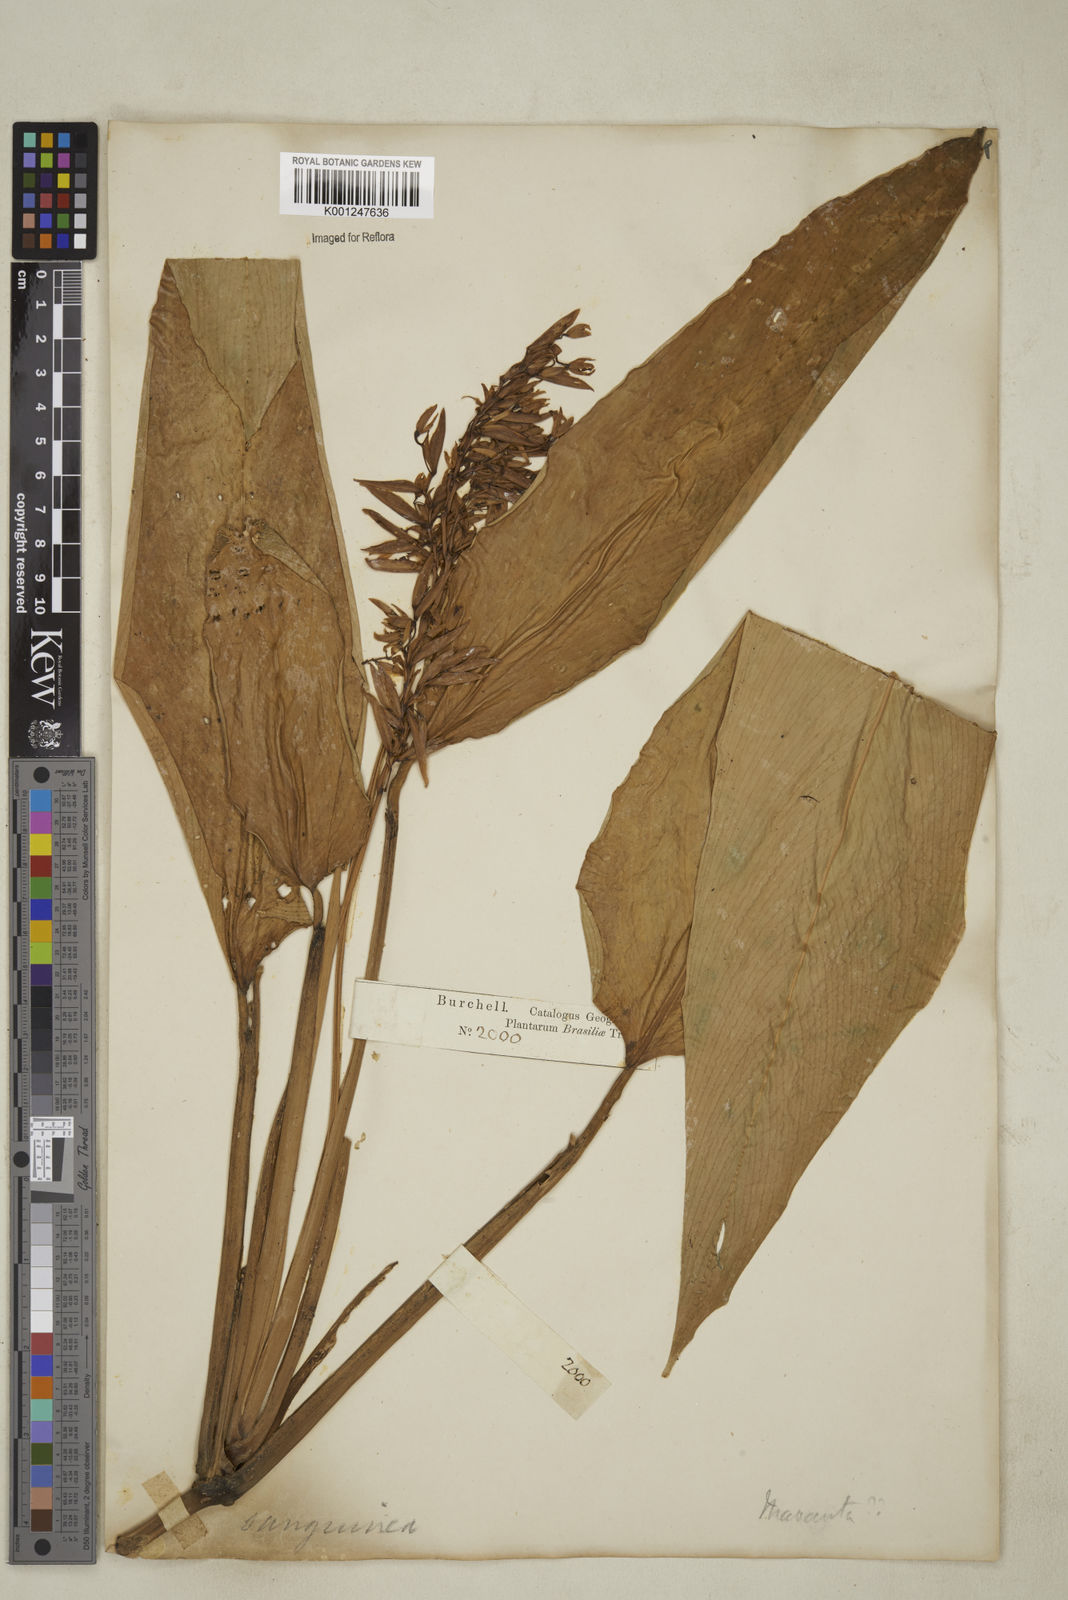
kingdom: Plantae
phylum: Tracheophyta
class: Liliopsida
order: Zingiberales
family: Marantaceae
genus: Stromanthe
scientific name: Stromanthe thalia
